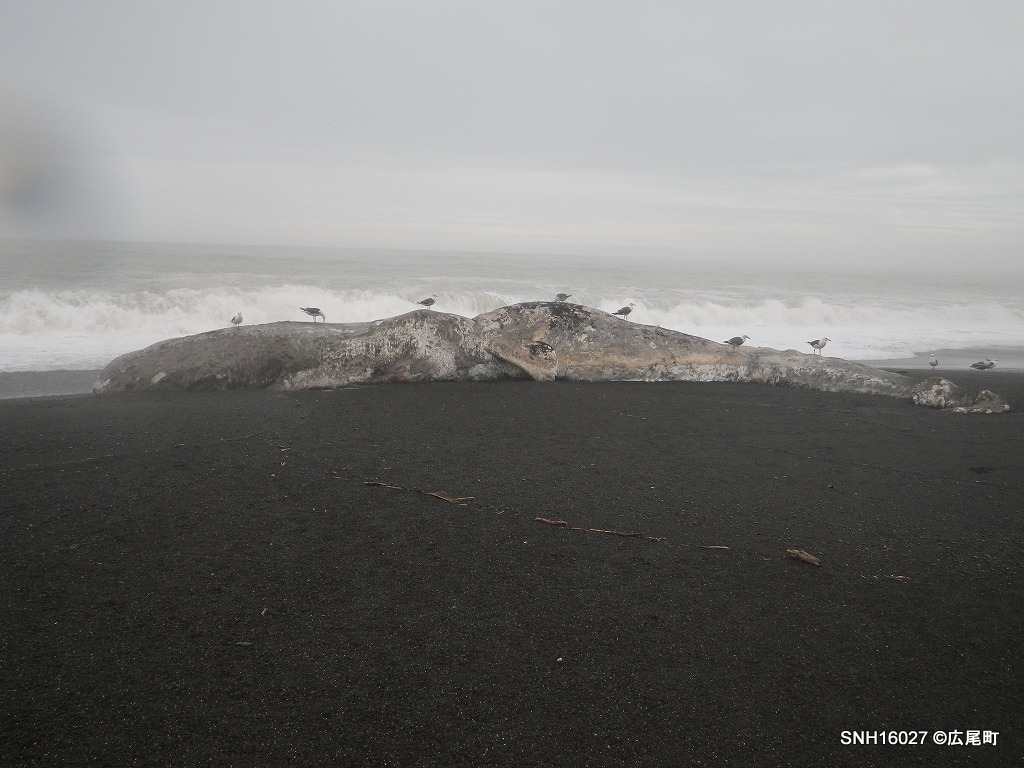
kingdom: Animalia
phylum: Chordata
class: Mammalia
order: Cetacea
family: Physeteridae
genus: Physeter
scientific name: Physeter macrocephalus
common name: Sperm whale
